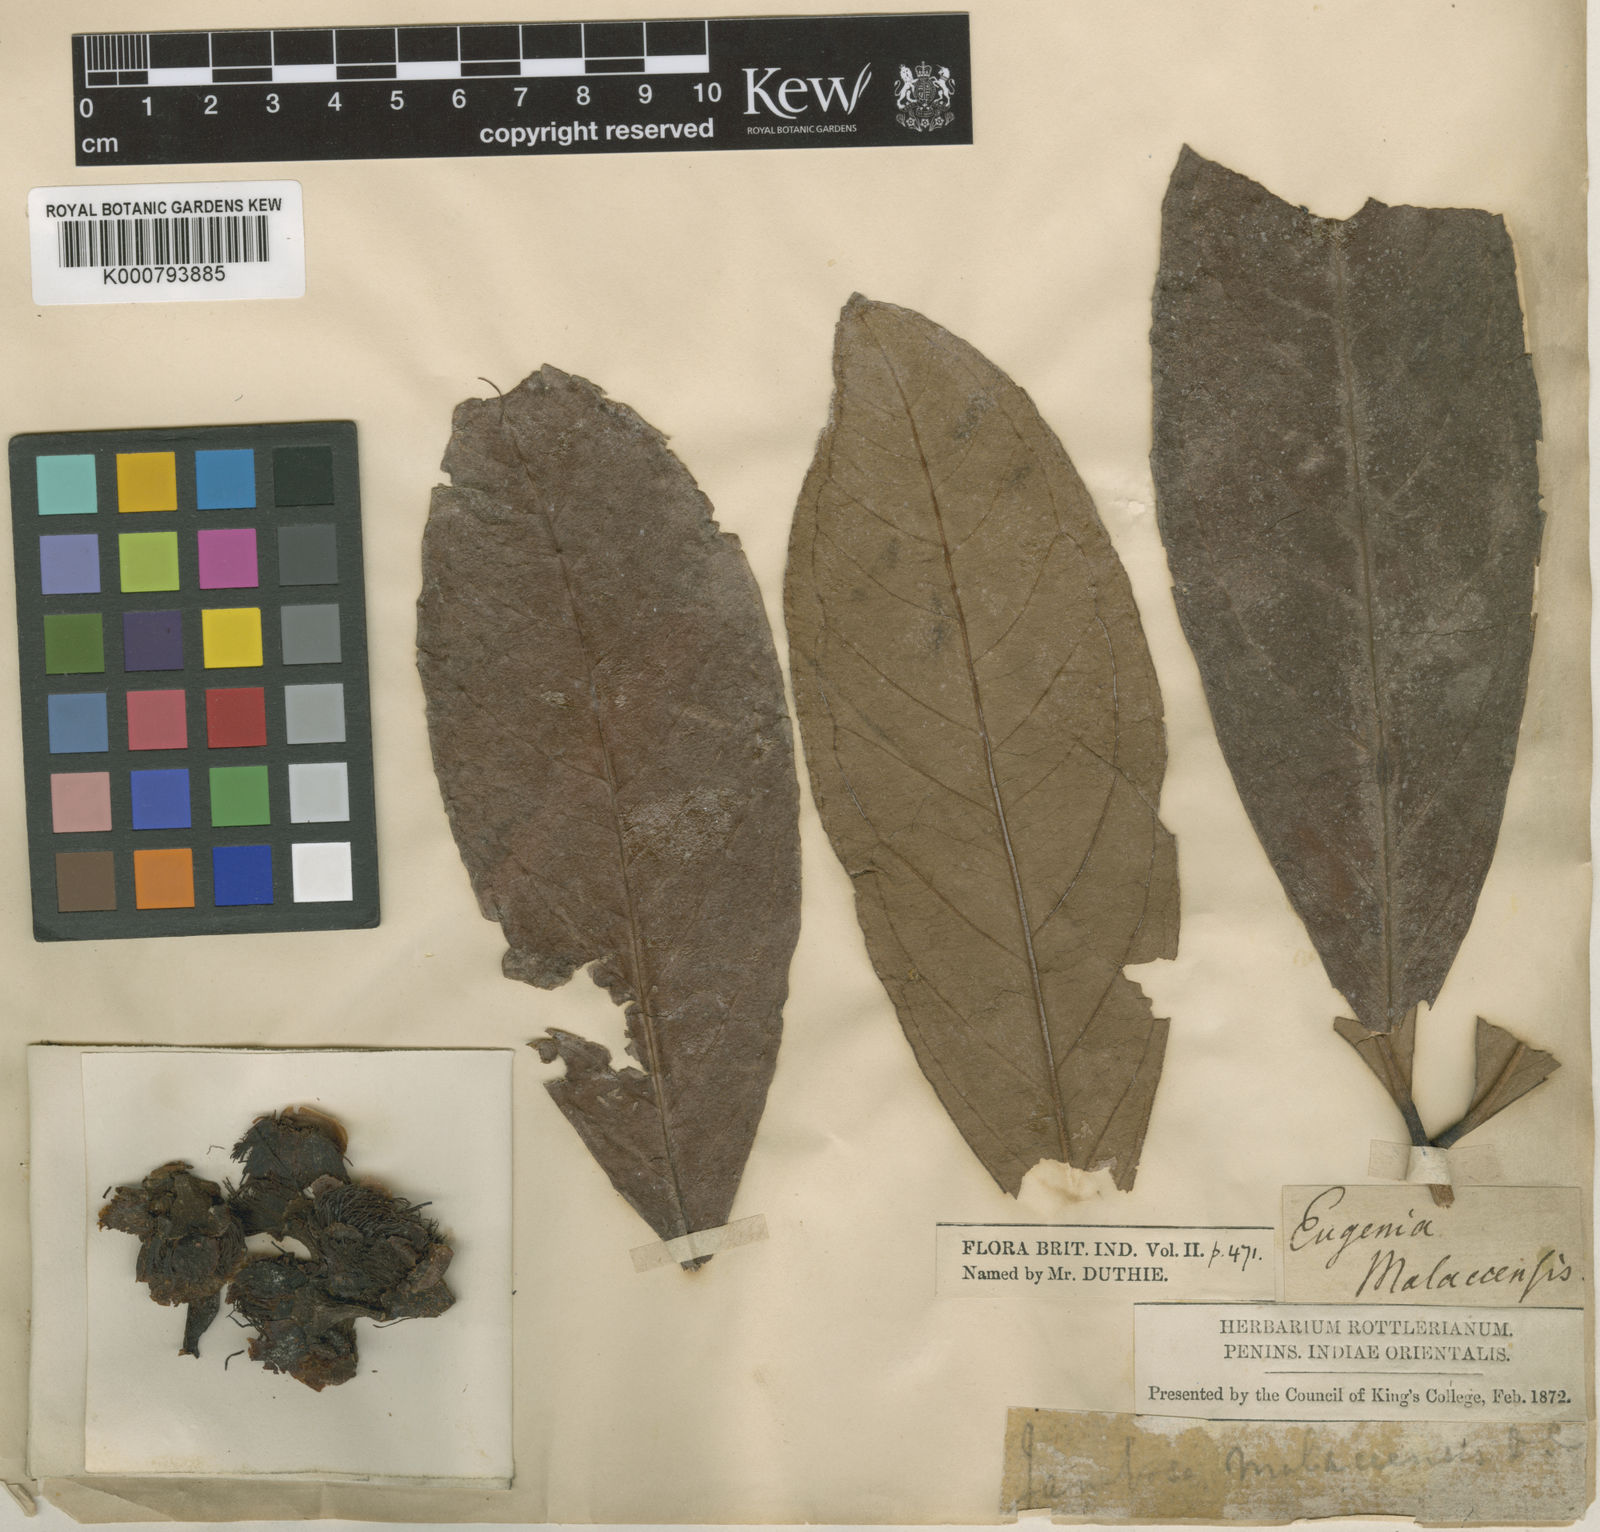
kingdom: Plantae
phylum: Tracheophyta
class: Magnoliopsida
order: Myrtales
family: Myrtaceae
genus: Syzygium
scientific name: Syzygium malaccense
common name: Malaysian apple
